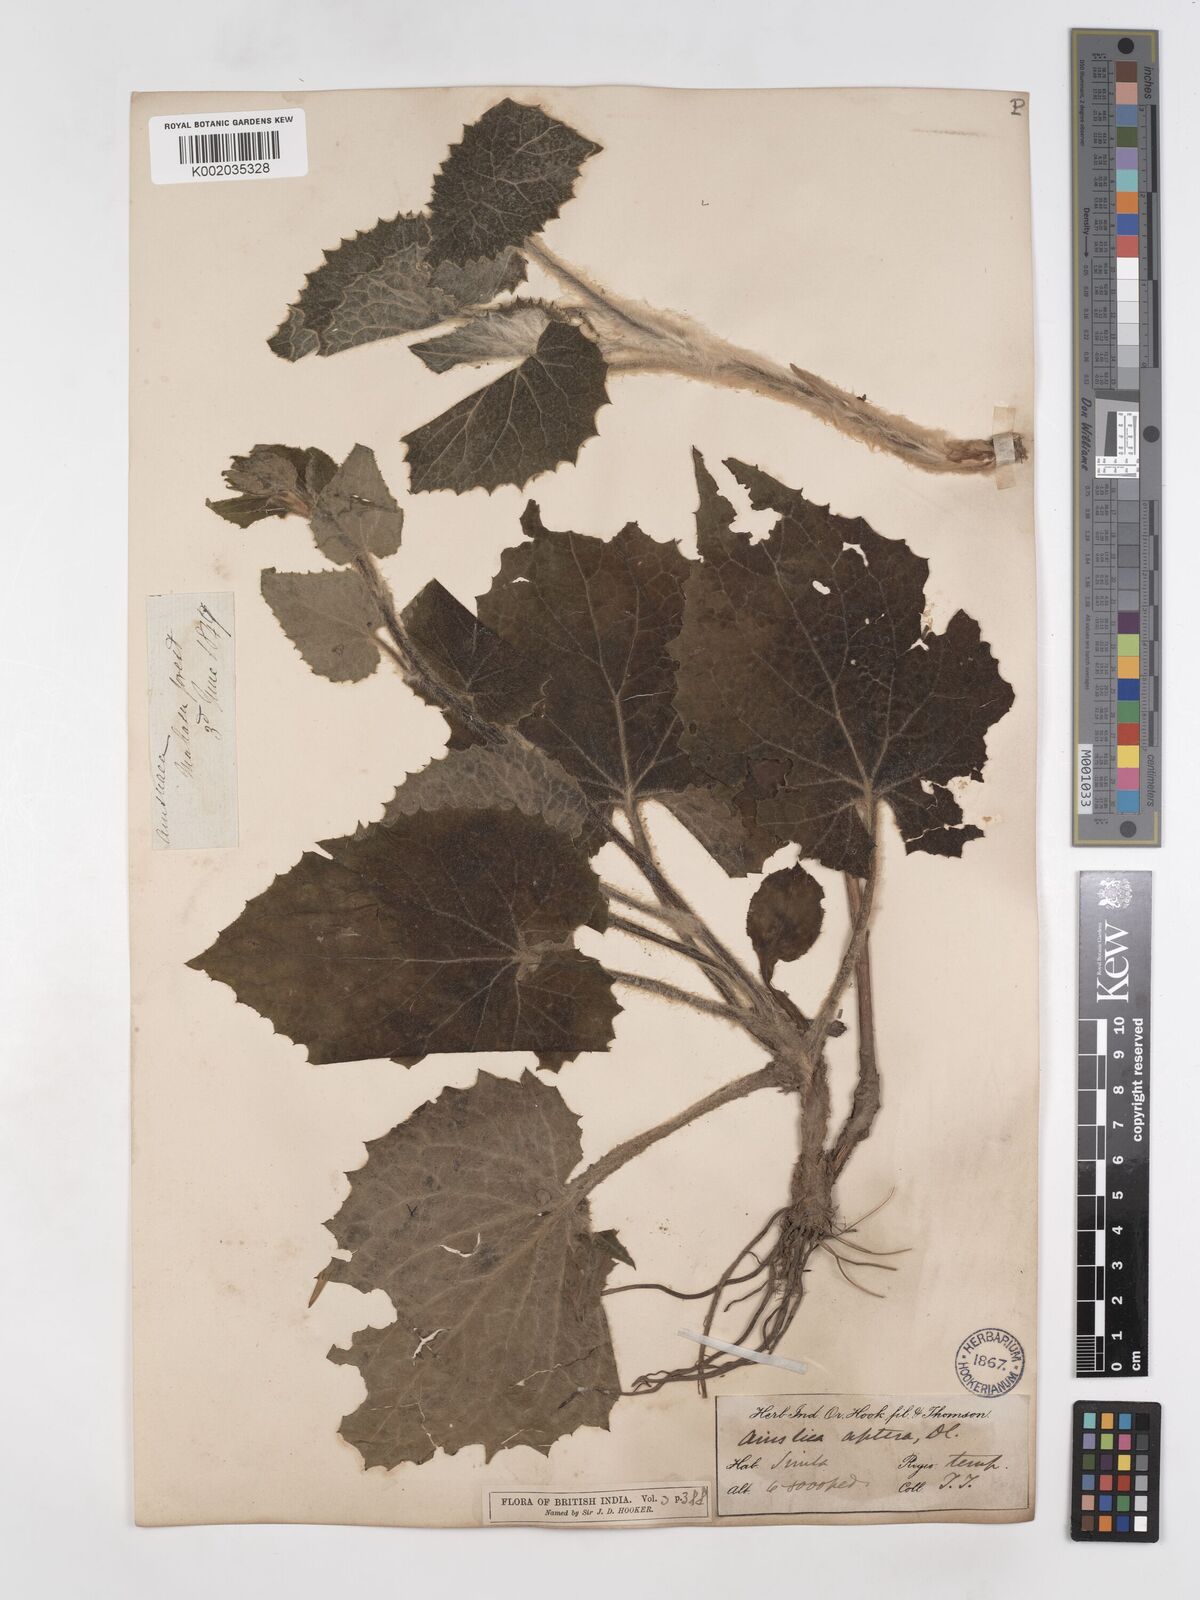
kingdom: Plantae
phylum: Tracheophyta
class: Magnoliopsida
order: Asterales
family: Asteraceae
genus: Ainsliaea
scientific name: Ainsliaea aptera
